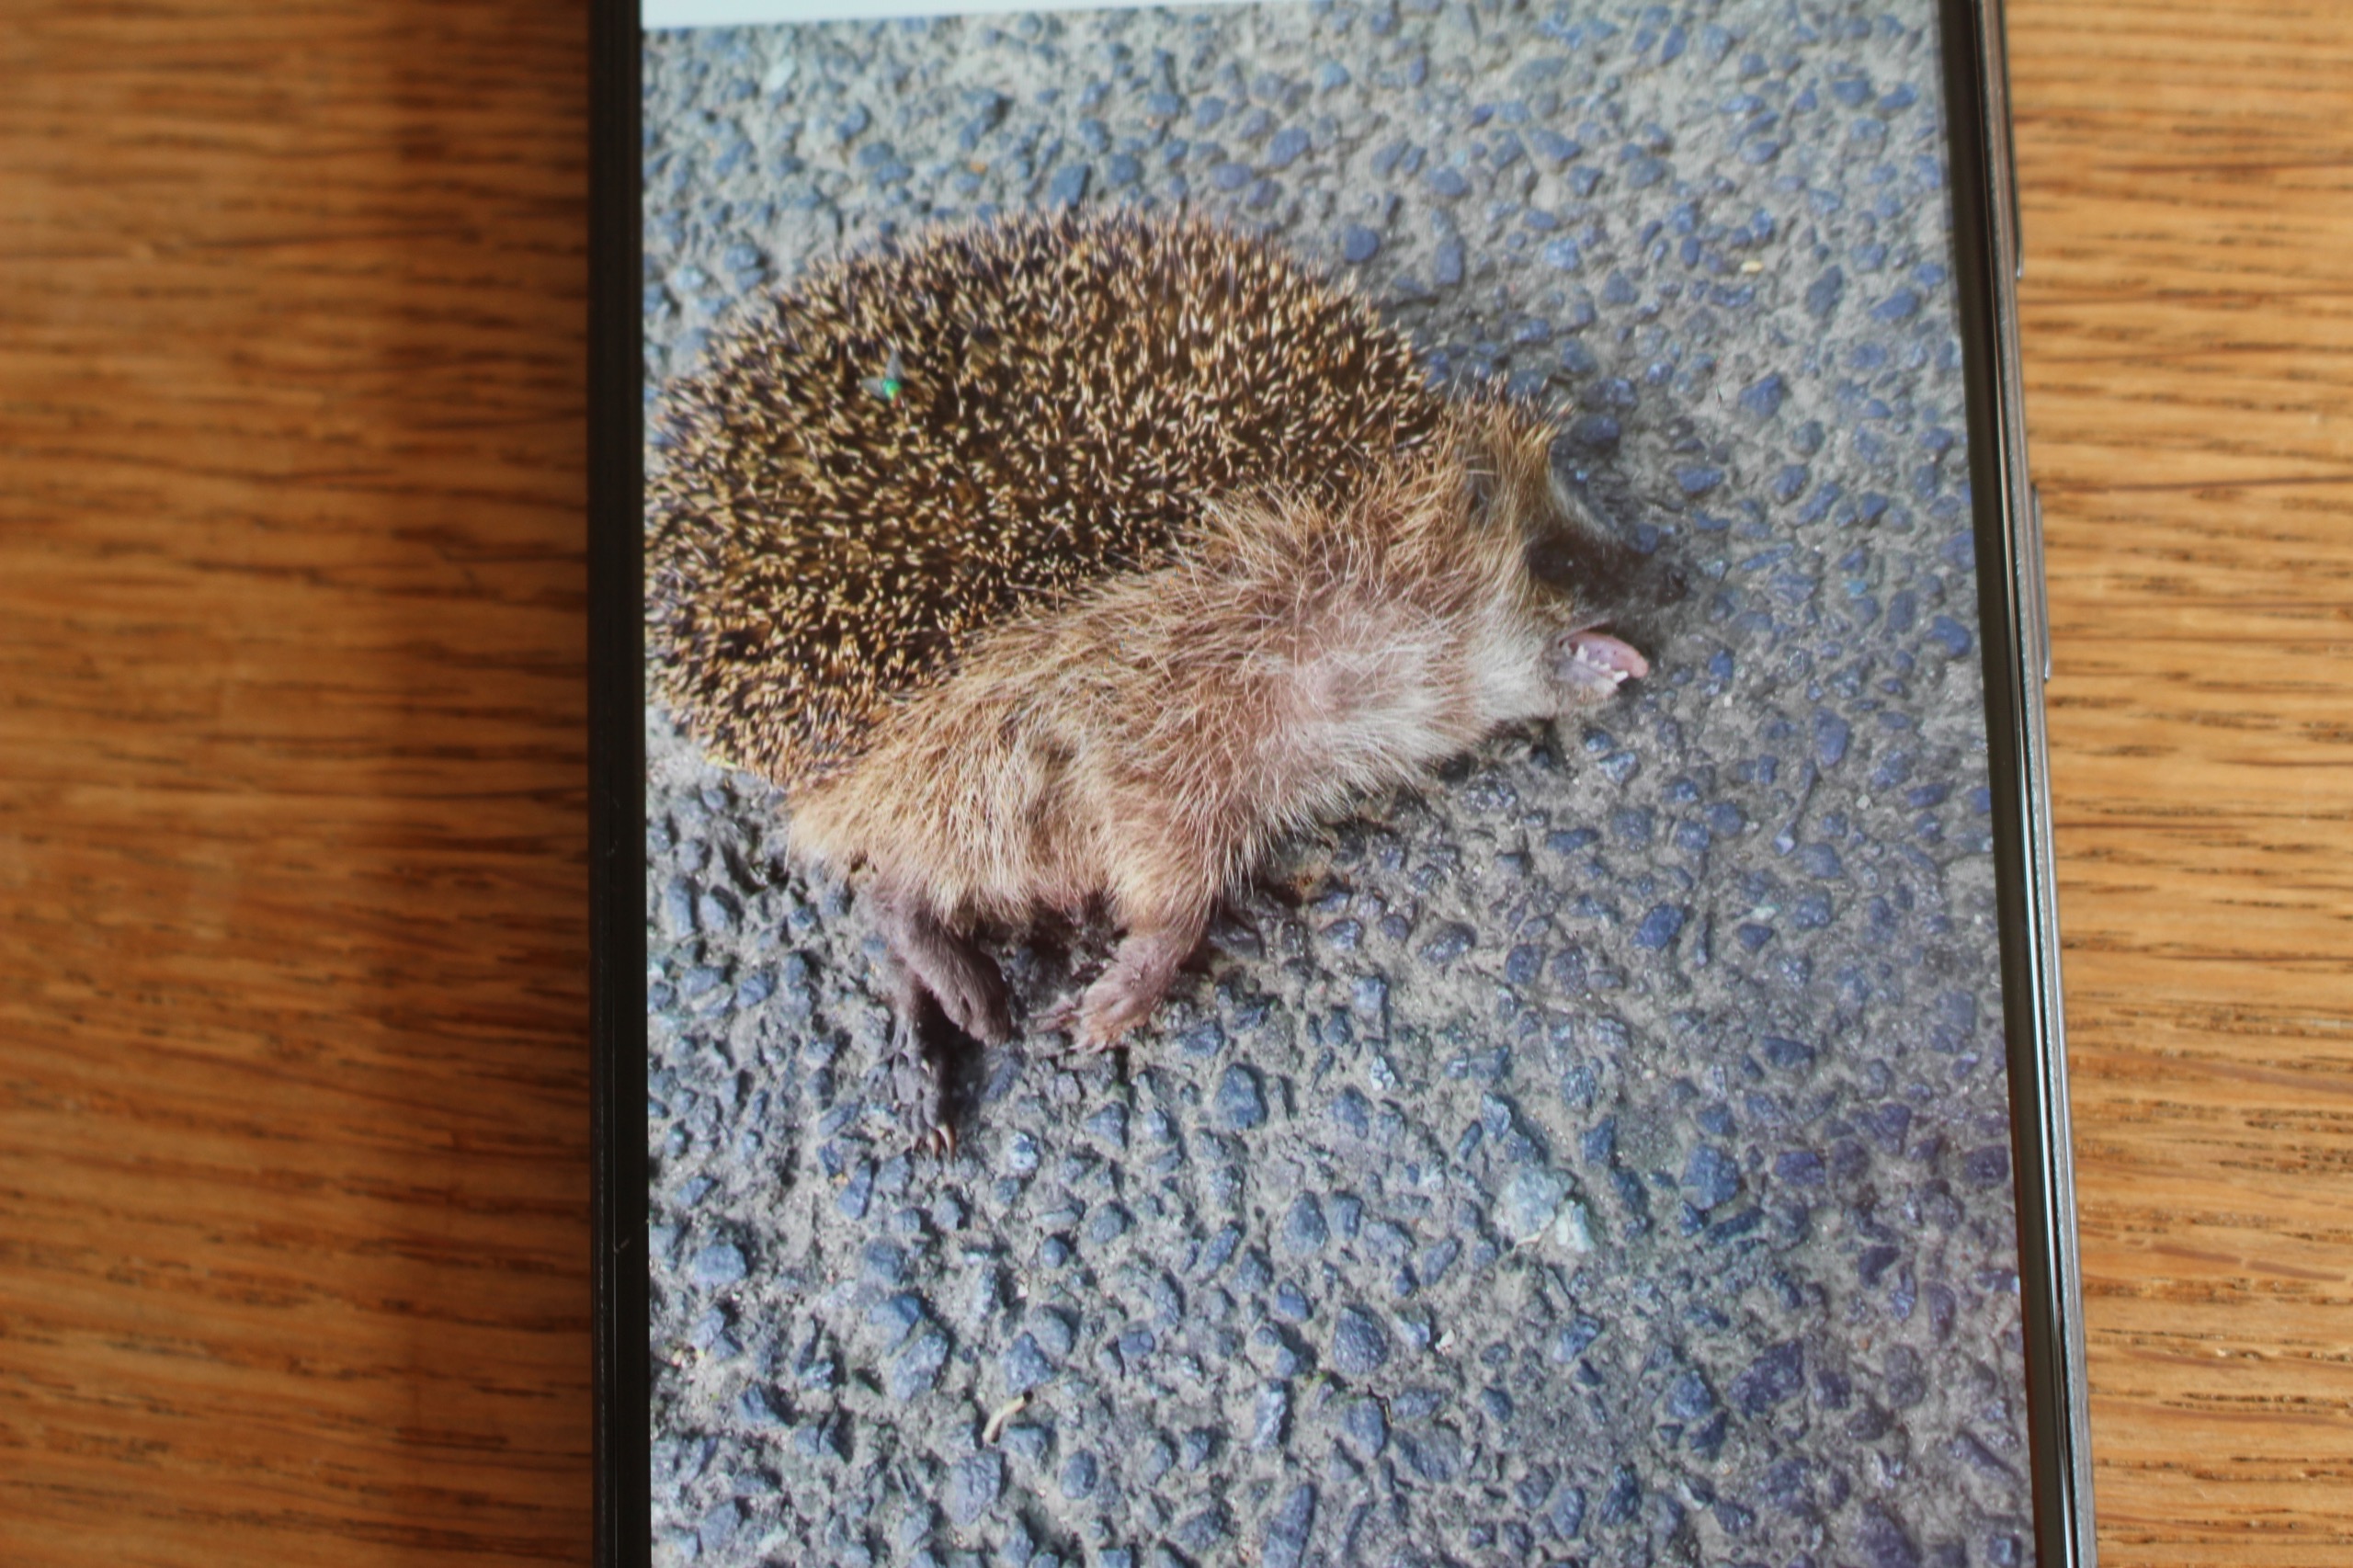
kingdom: Animalia
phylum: Chordata
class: Mammalia
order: Erinaceomorpha
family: Erinaceidae
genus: Erinaceus
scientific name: Erinaceus europaeus
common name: Pindsvin
